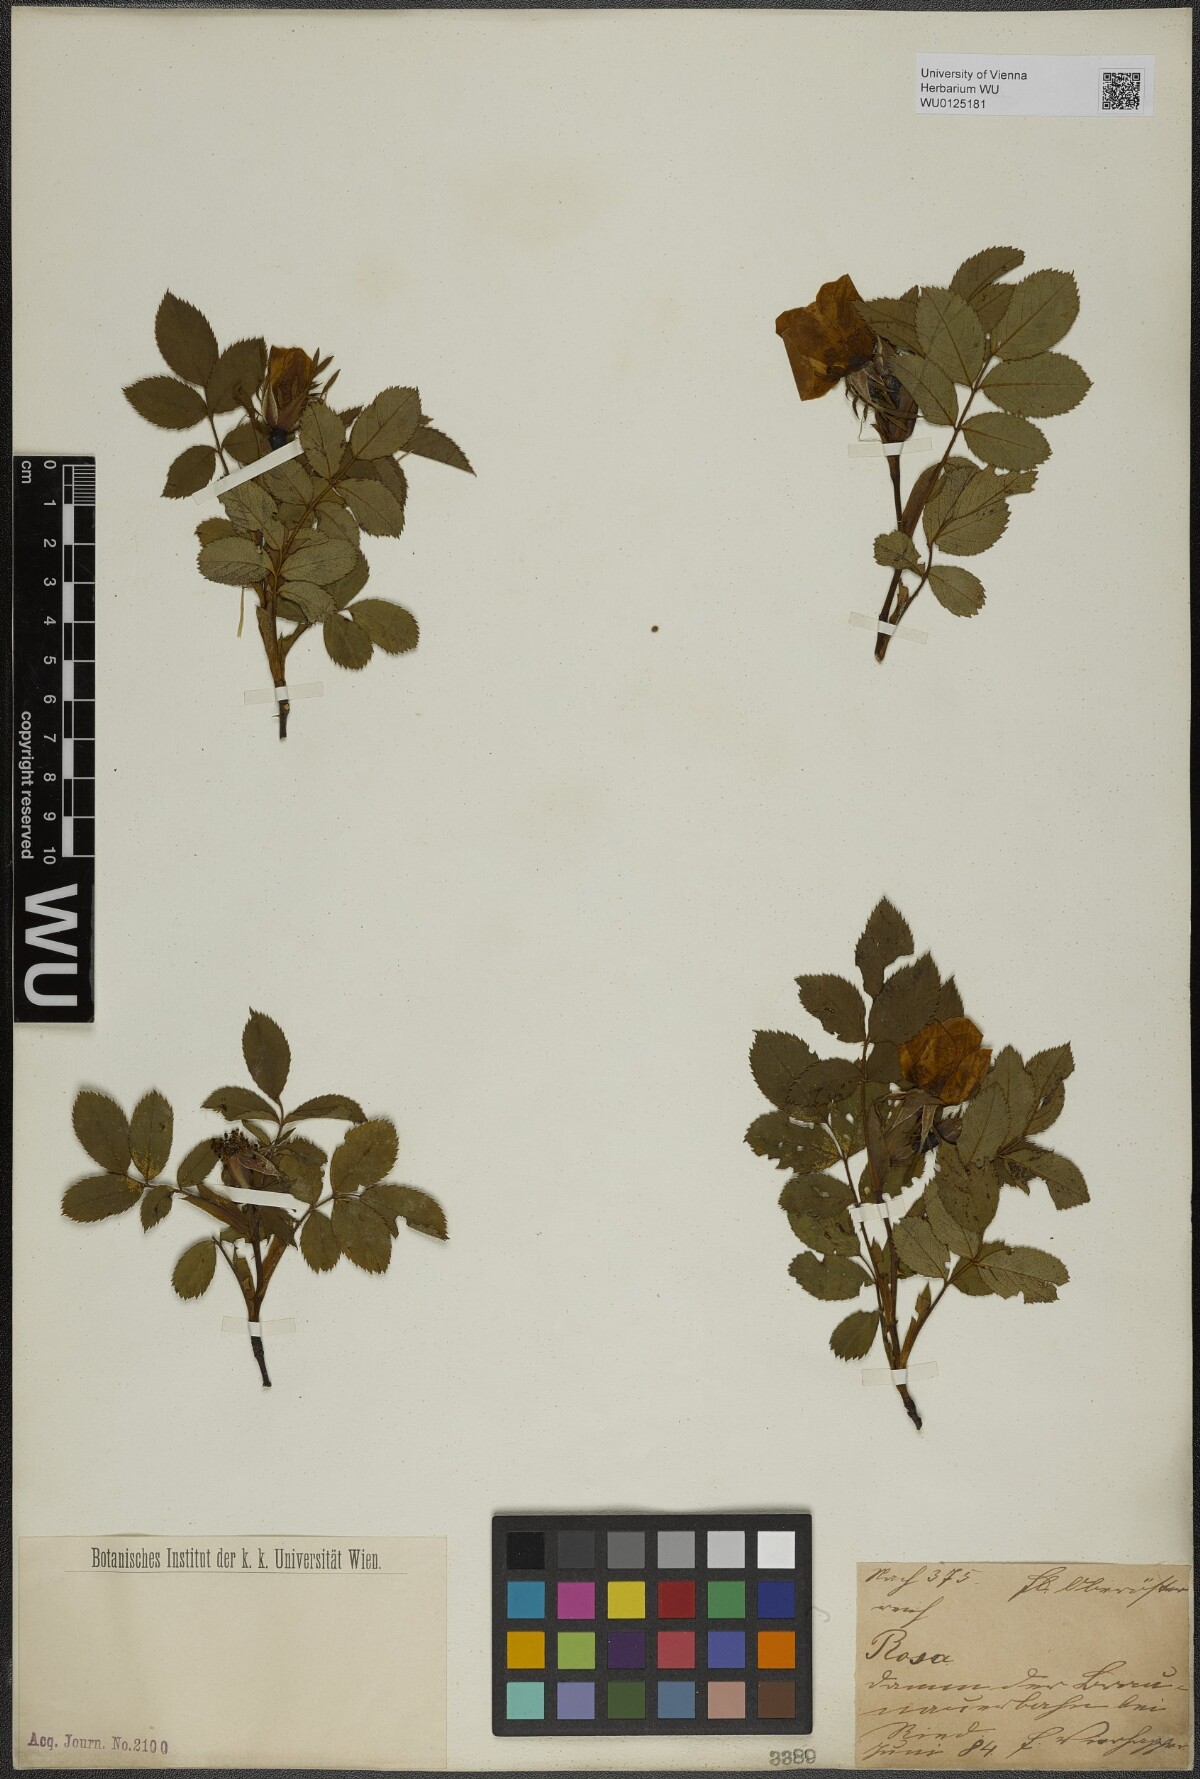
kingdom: Plantae
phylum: Tracheophyta
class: Magnoliopsida
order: Rosales
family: Rosaceae
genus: Rosa
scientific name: Rosa
